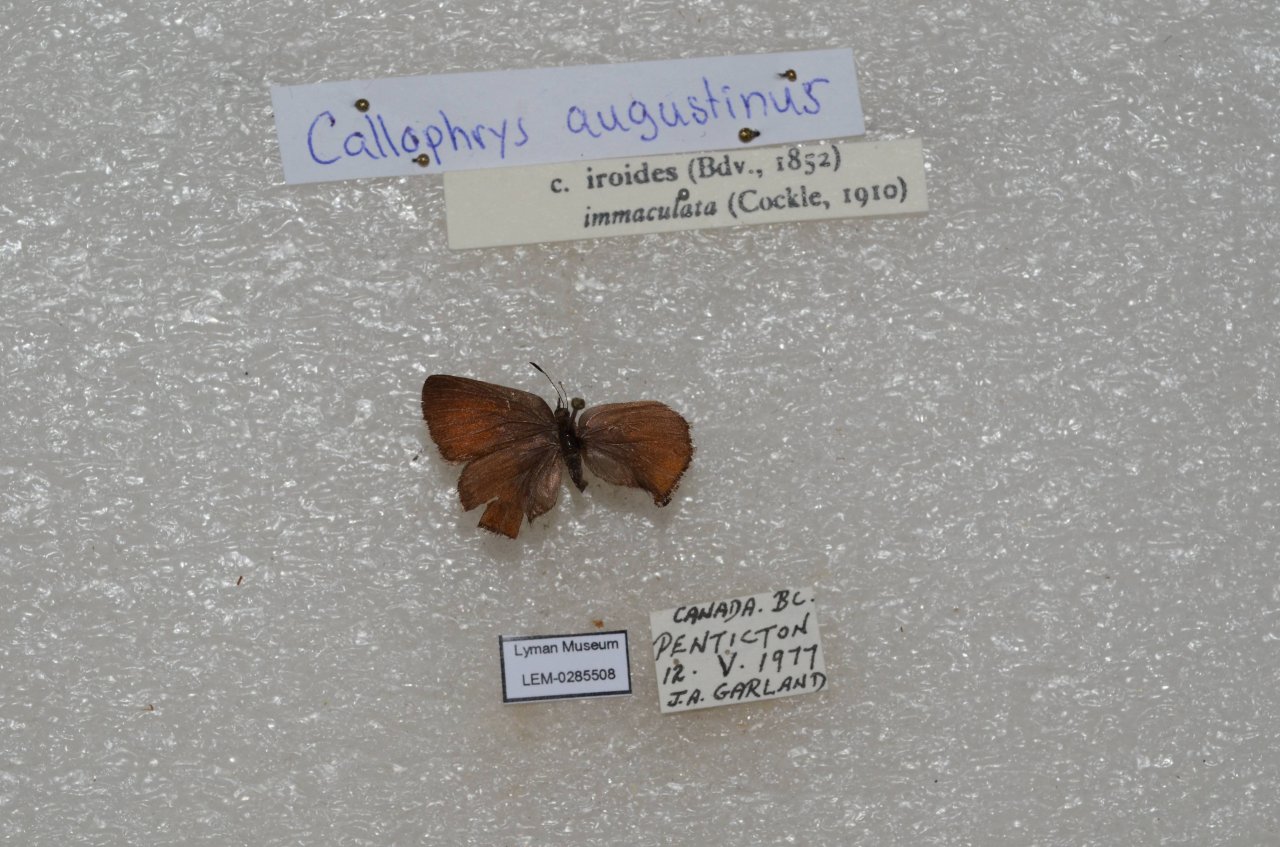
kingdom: Animalia
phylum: Arthropoda
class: Insecta
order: Lepidoptera
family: Lycaenidae
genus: Incisalia
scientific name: Incisalia irioides
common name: Brown Elfin
